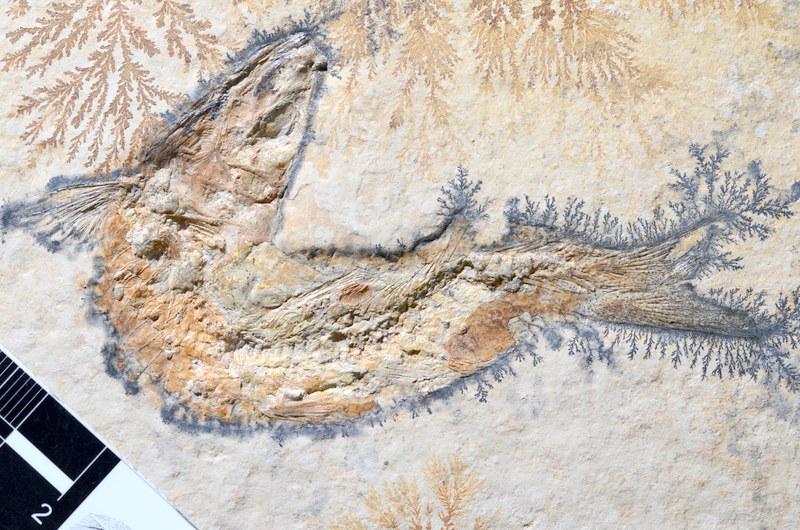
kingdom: Animalia
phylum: Chordata
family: Ascalaboidae
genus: Tharsis
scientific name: Tharsis dubius
